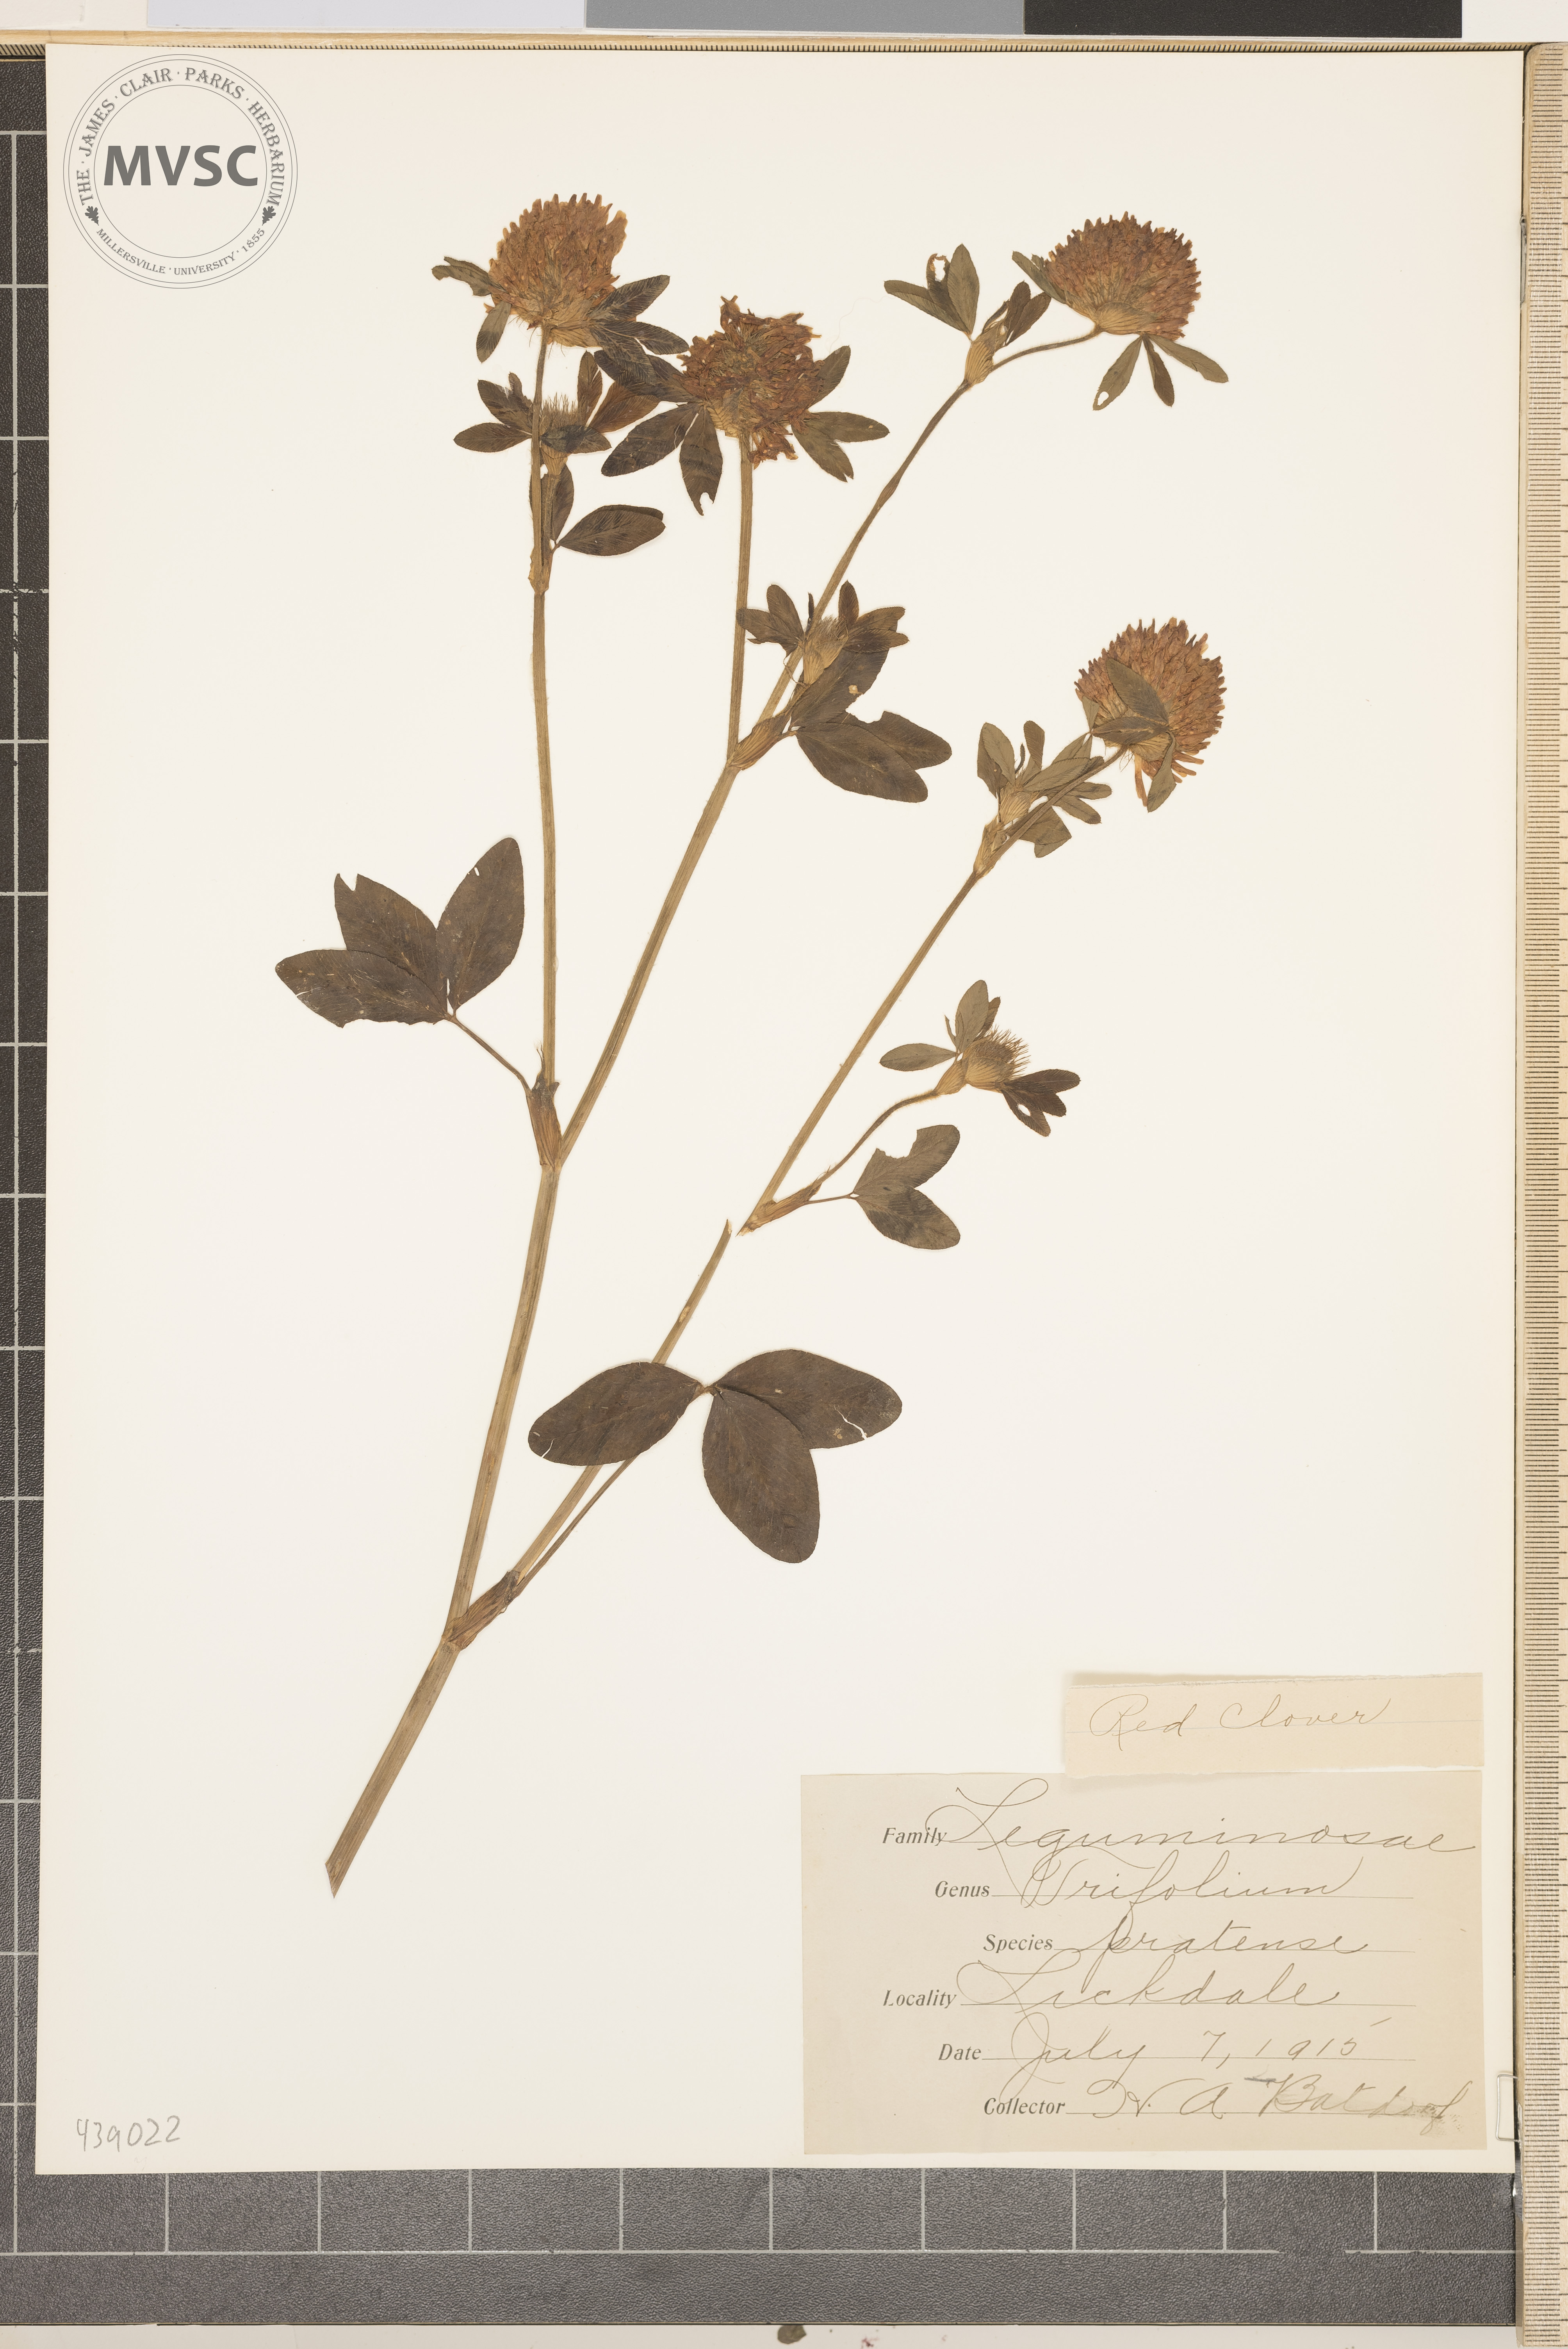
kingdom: Plantae
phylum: Tracheophyta
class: Magnoliopsida
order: Fabales
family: Fabaceae
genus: Trifolium
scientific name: Trifolium pratense
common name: Red clover
